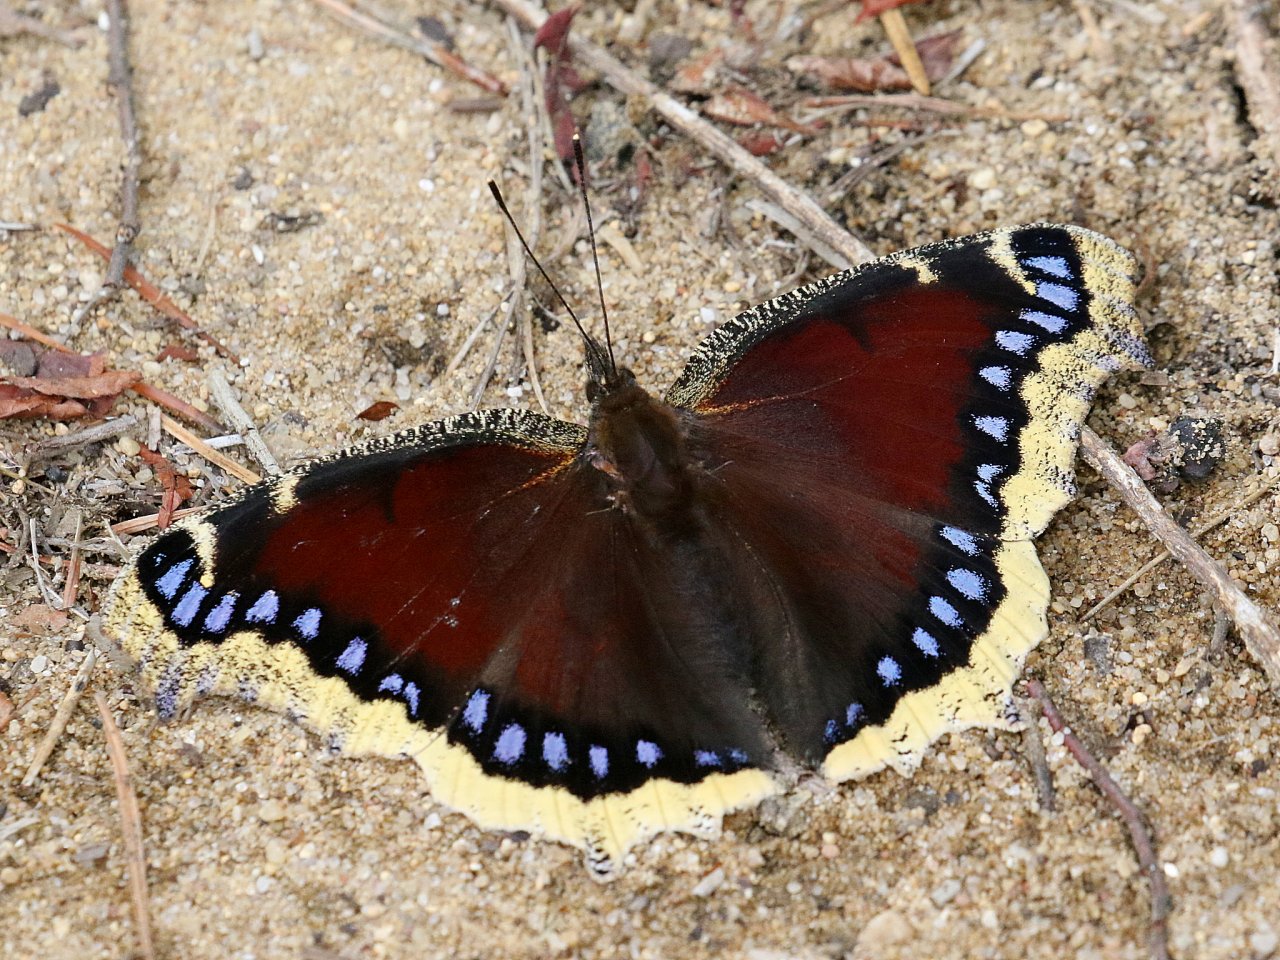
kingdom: Animalia
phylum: Arthropoda
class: Insecta
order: Lepidoptera
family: Nymphalidae
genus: Nymphalis
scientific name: Nymphalis antiopa
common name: Mourning Cloak
